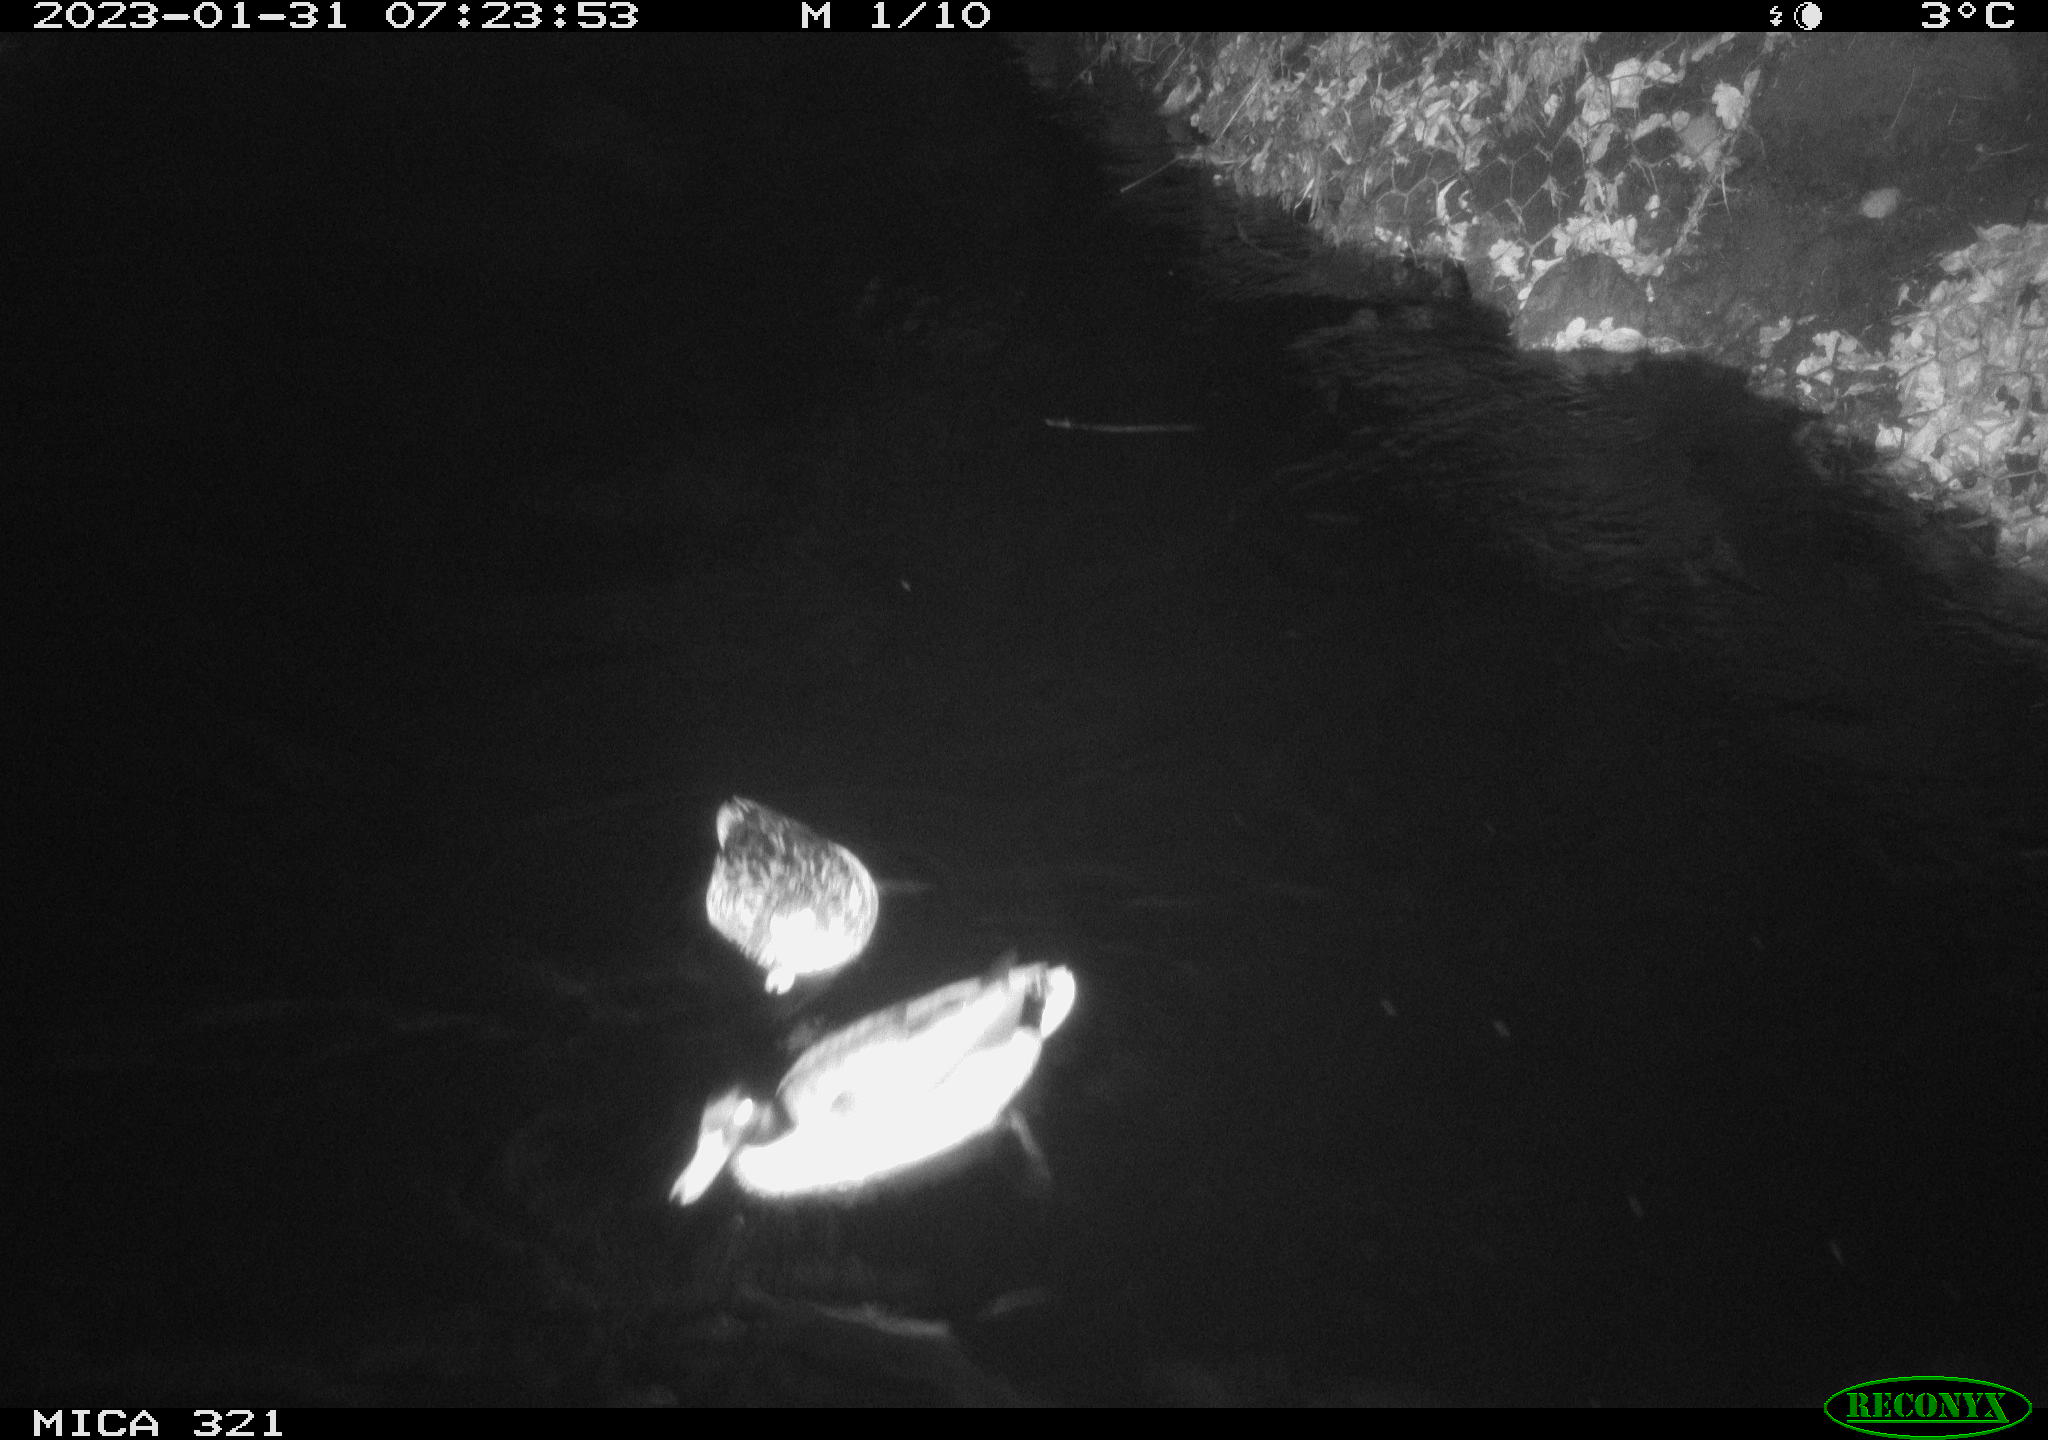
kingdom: Animalia
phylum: Chordata
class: Aves
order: Anseriformes
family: Anatidae
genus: Anas
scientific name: Anas
